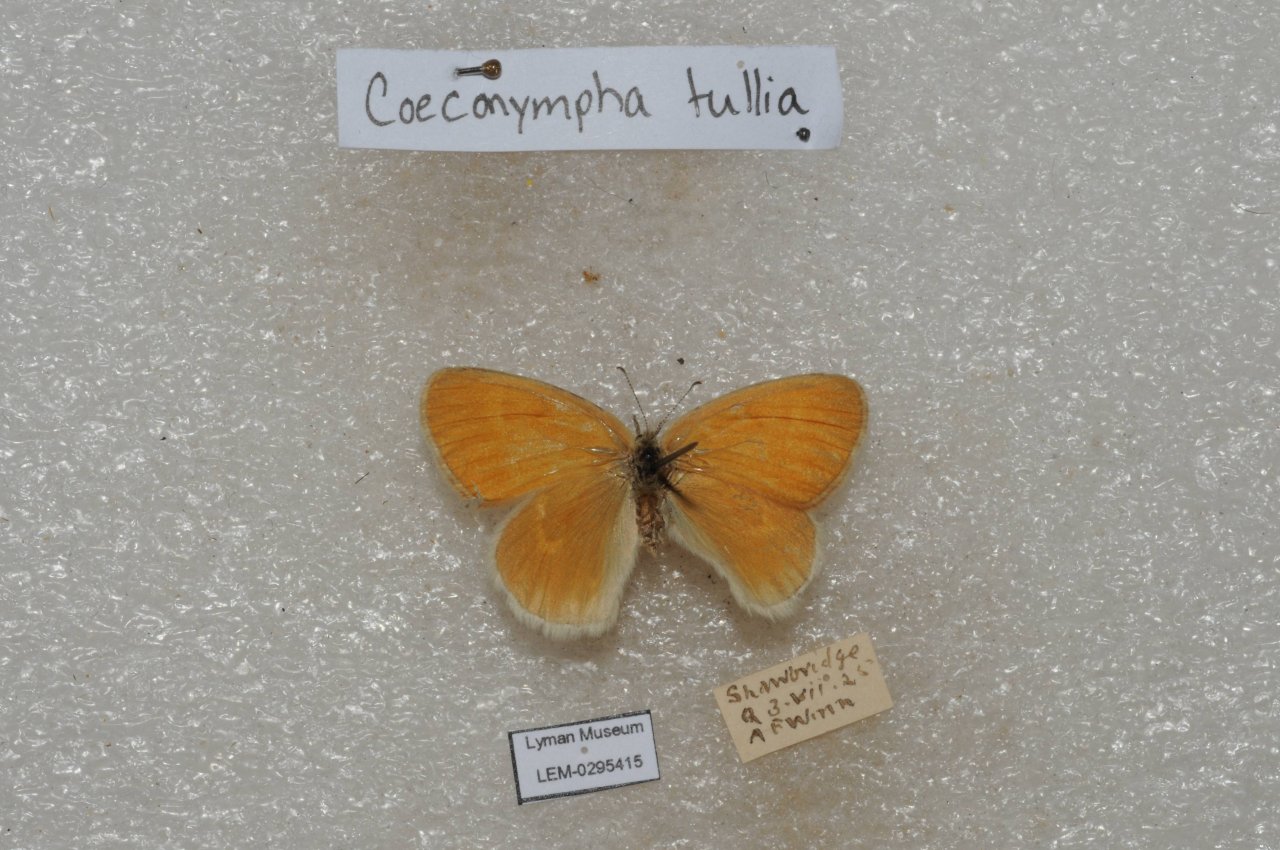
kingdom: Animalia
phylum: Arthropoda
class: Insecta
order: Lepidoptera
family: Nymphalidae
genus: Coenonympha
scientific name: Coenonympha tullia
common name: Large Heath
